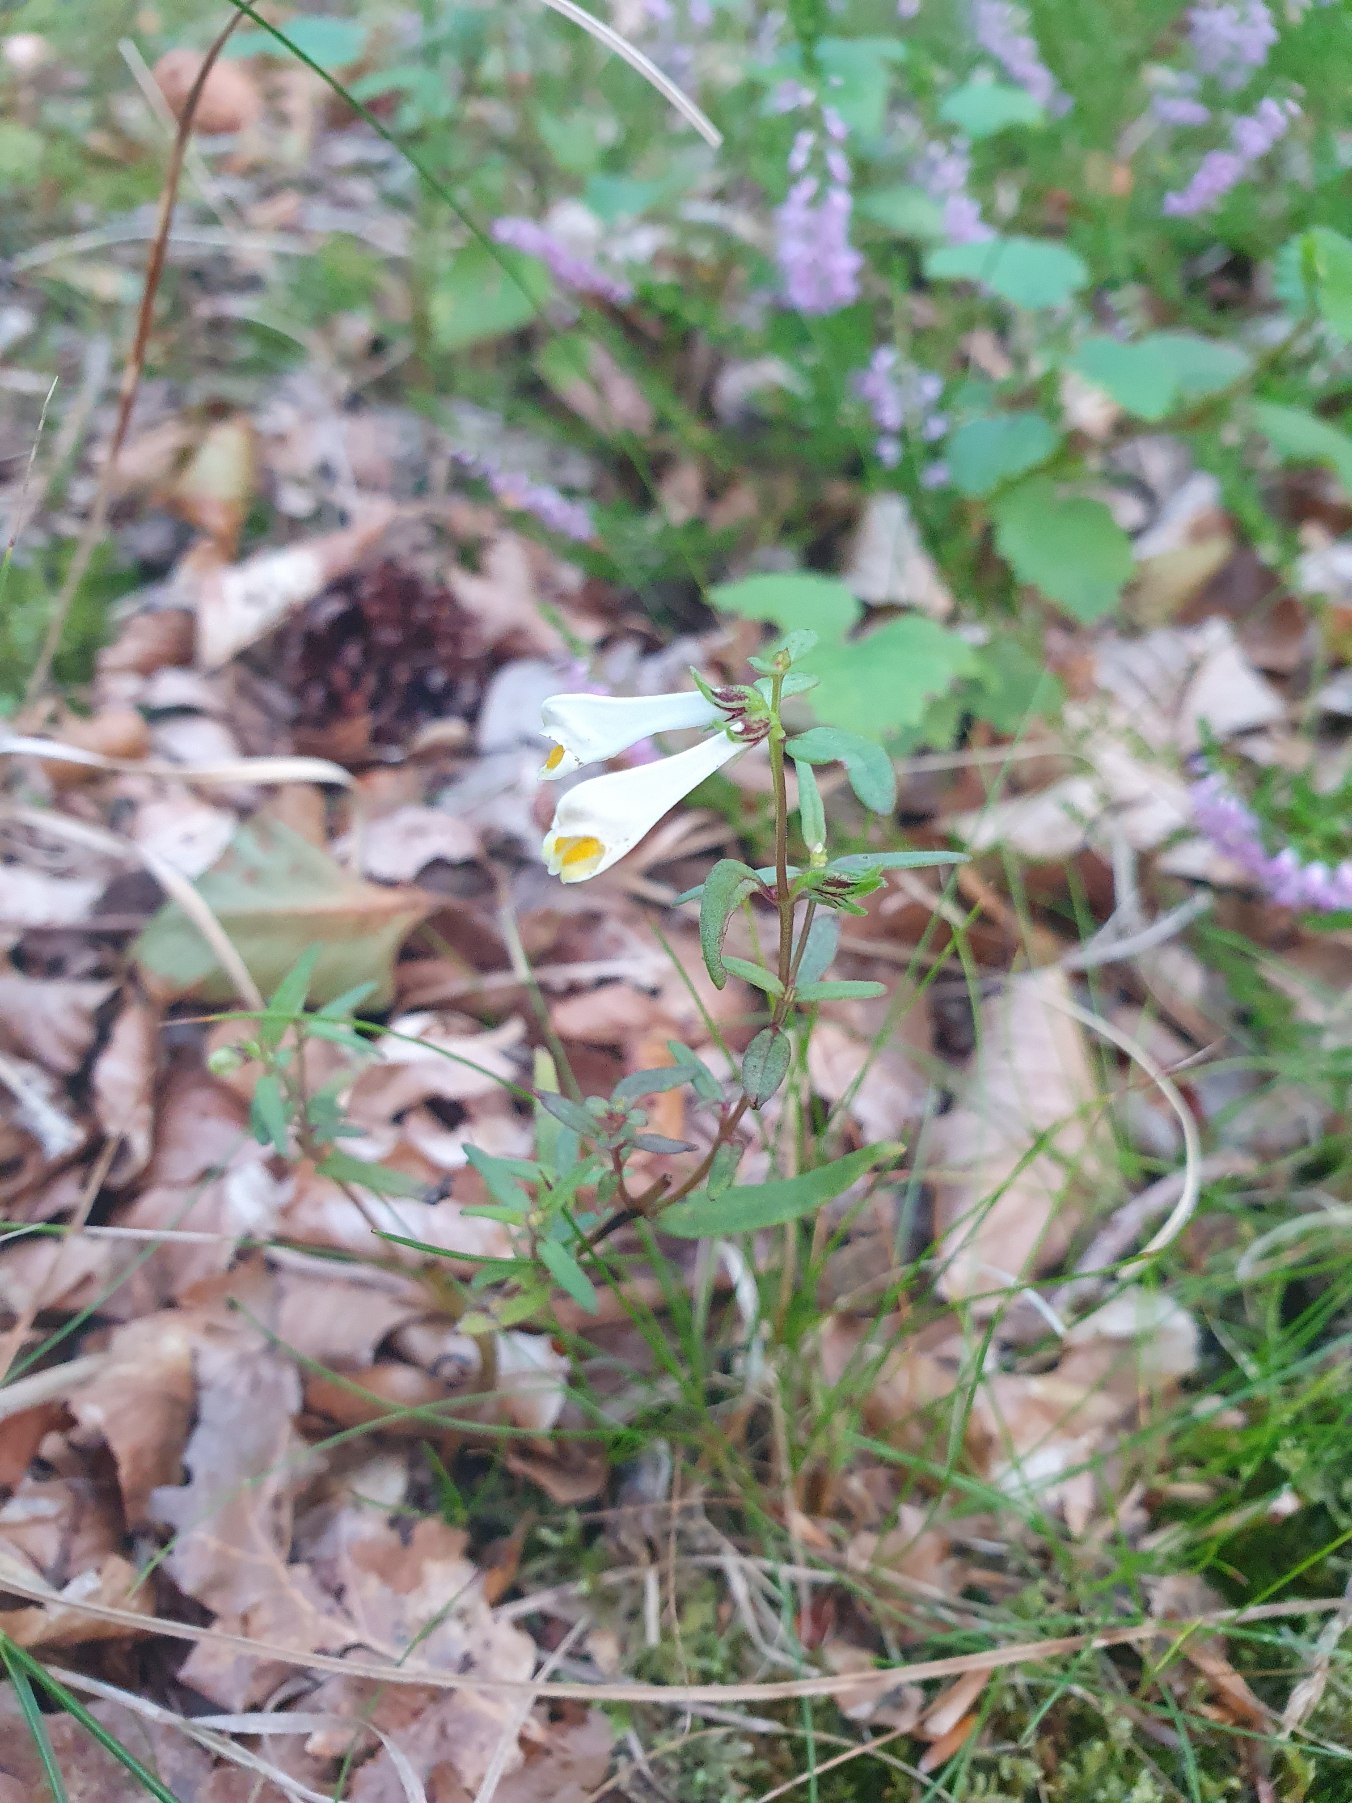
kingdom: Plantae
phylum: Tracheophyta
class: Magnoliopsida
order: Lamiales
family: Orobanchaceae
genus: Melampyrum
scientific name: Melampyrum pratense
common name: Almindelig kohvede
